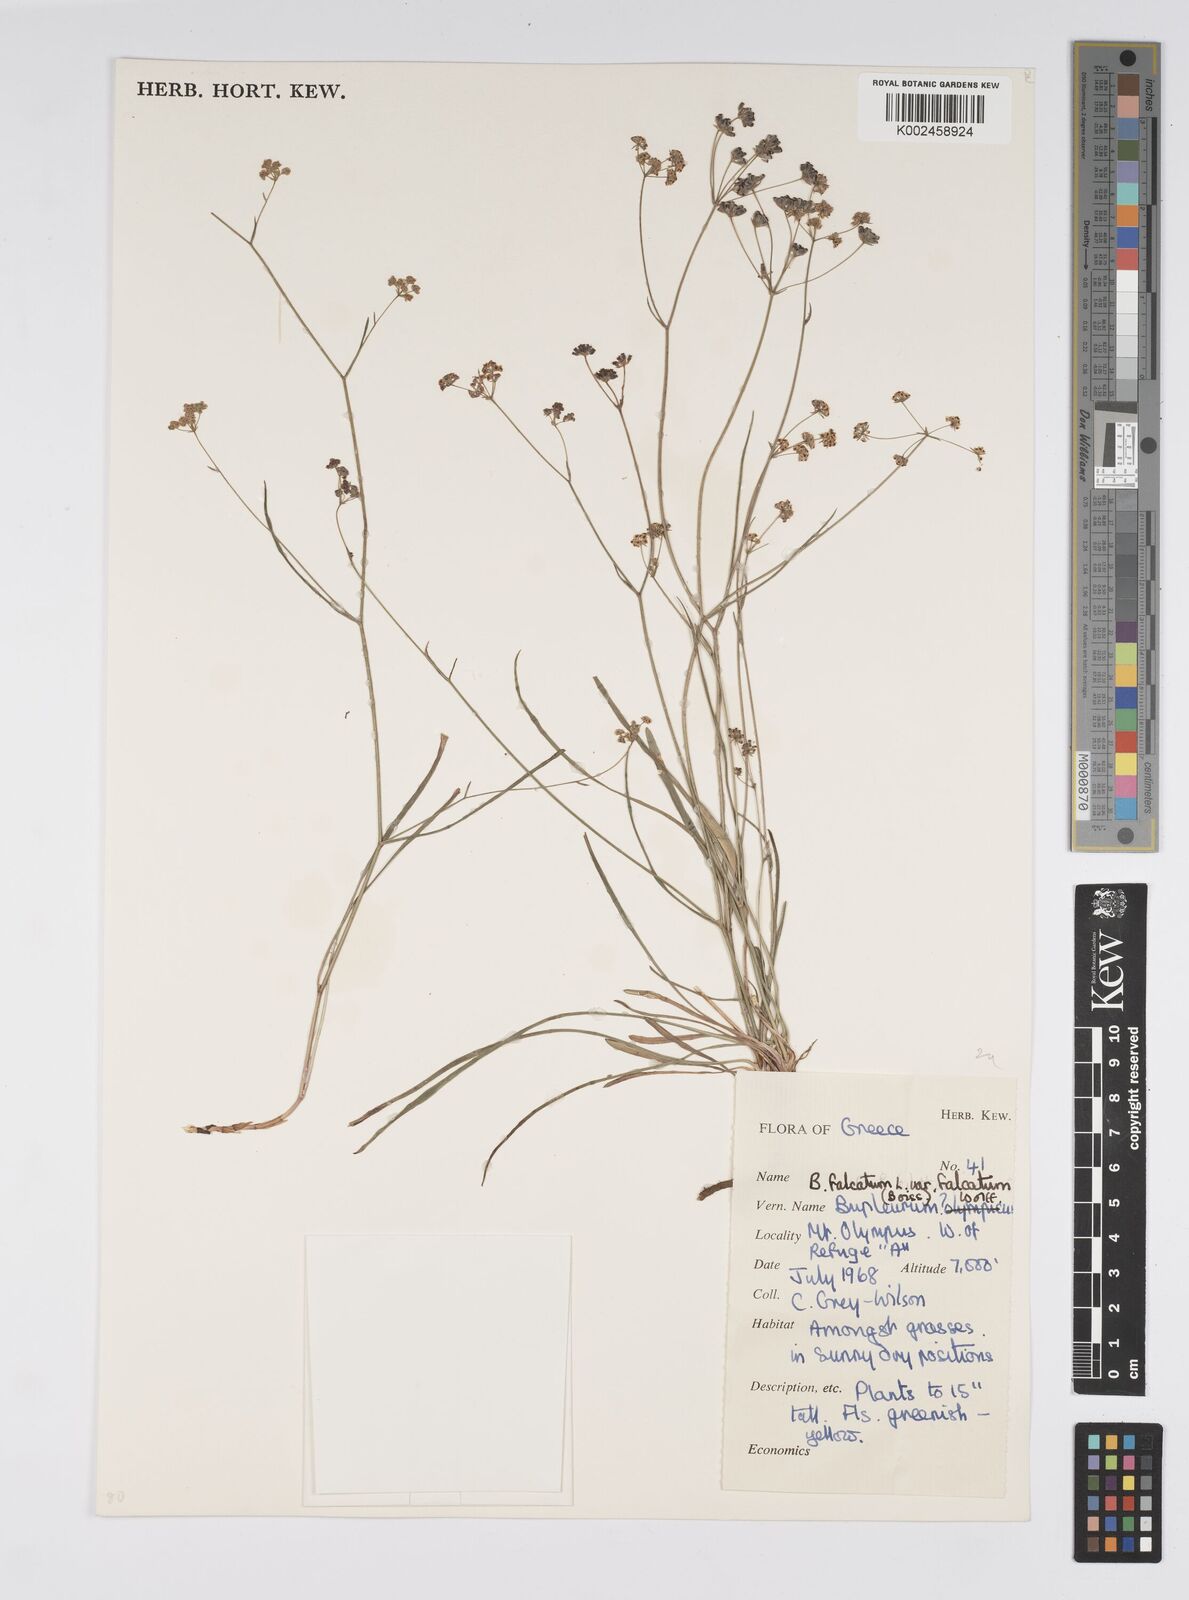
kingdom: Plantae
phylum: Tracheophyta
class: Magnoliopsida
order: Apiales
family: Apiaceae
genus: Bupleurum
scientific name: Bupleurum falcatum
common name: Sickle-leaved hare's-ear
